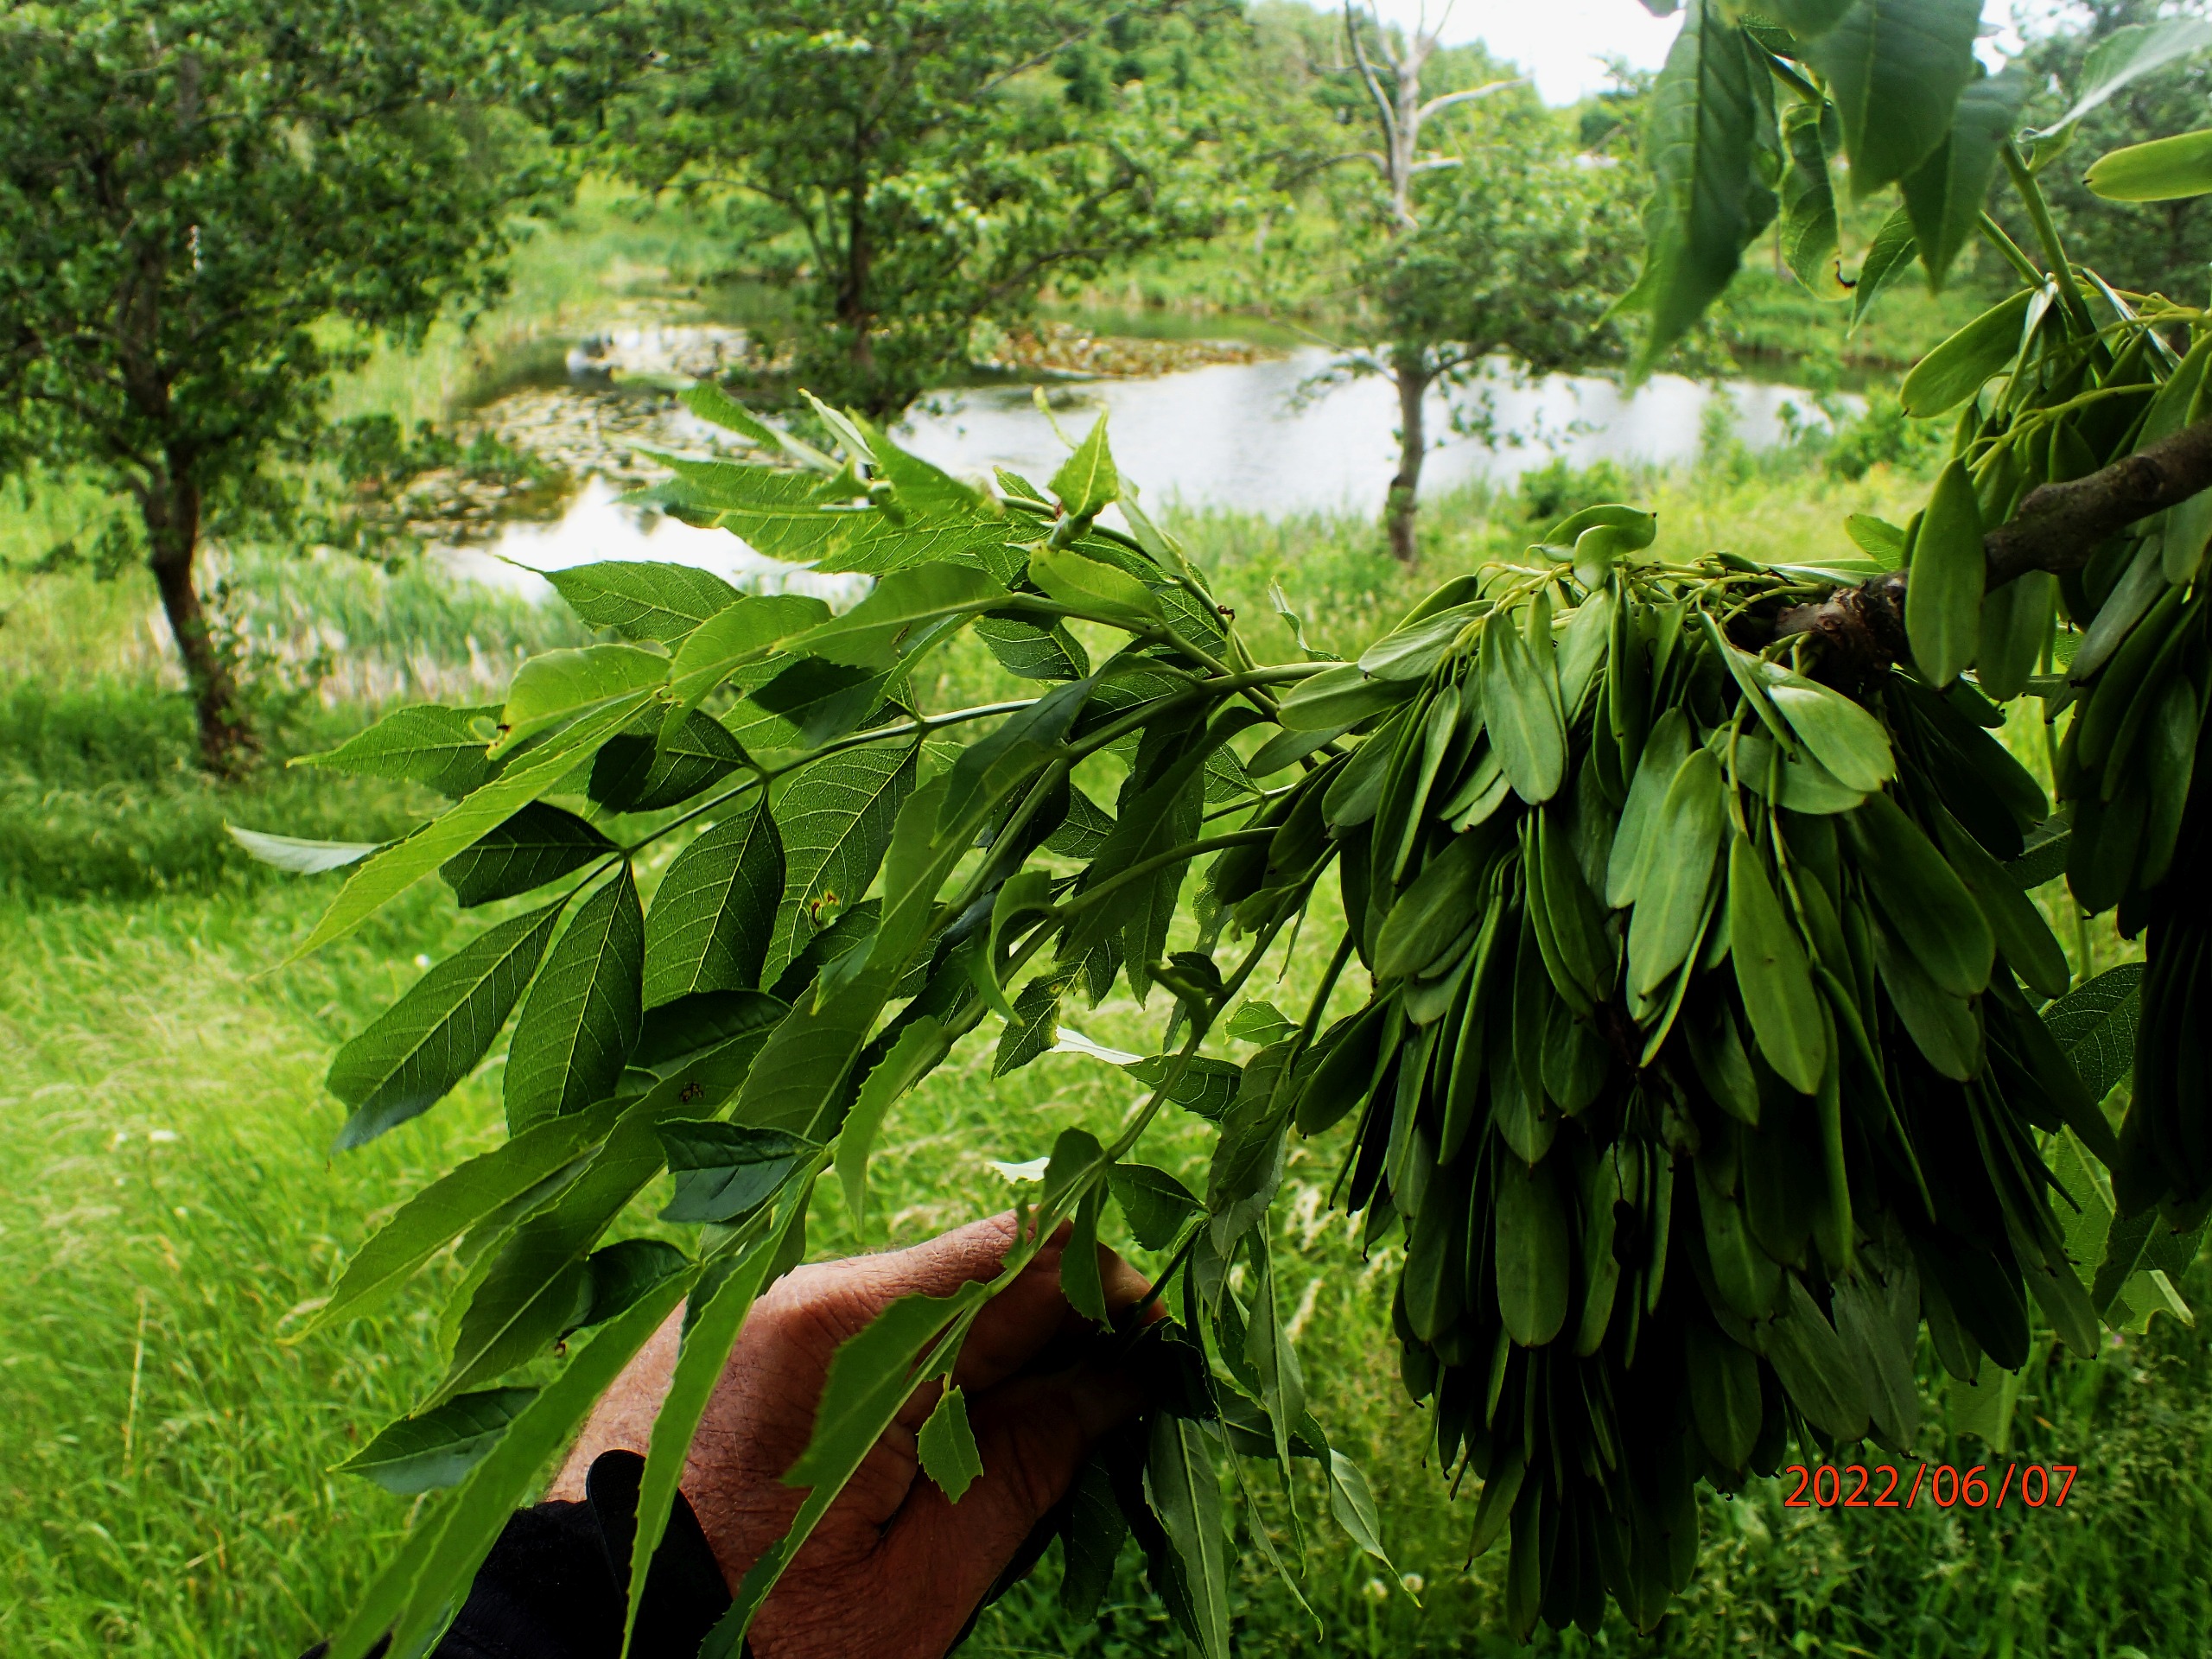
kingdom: Plantae
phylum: Tracheophyta
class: Magnoliopsida
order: Lamiales
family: Oleaceae
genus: Fraxinus
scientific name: Fraxinus excelsior
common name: Ask
